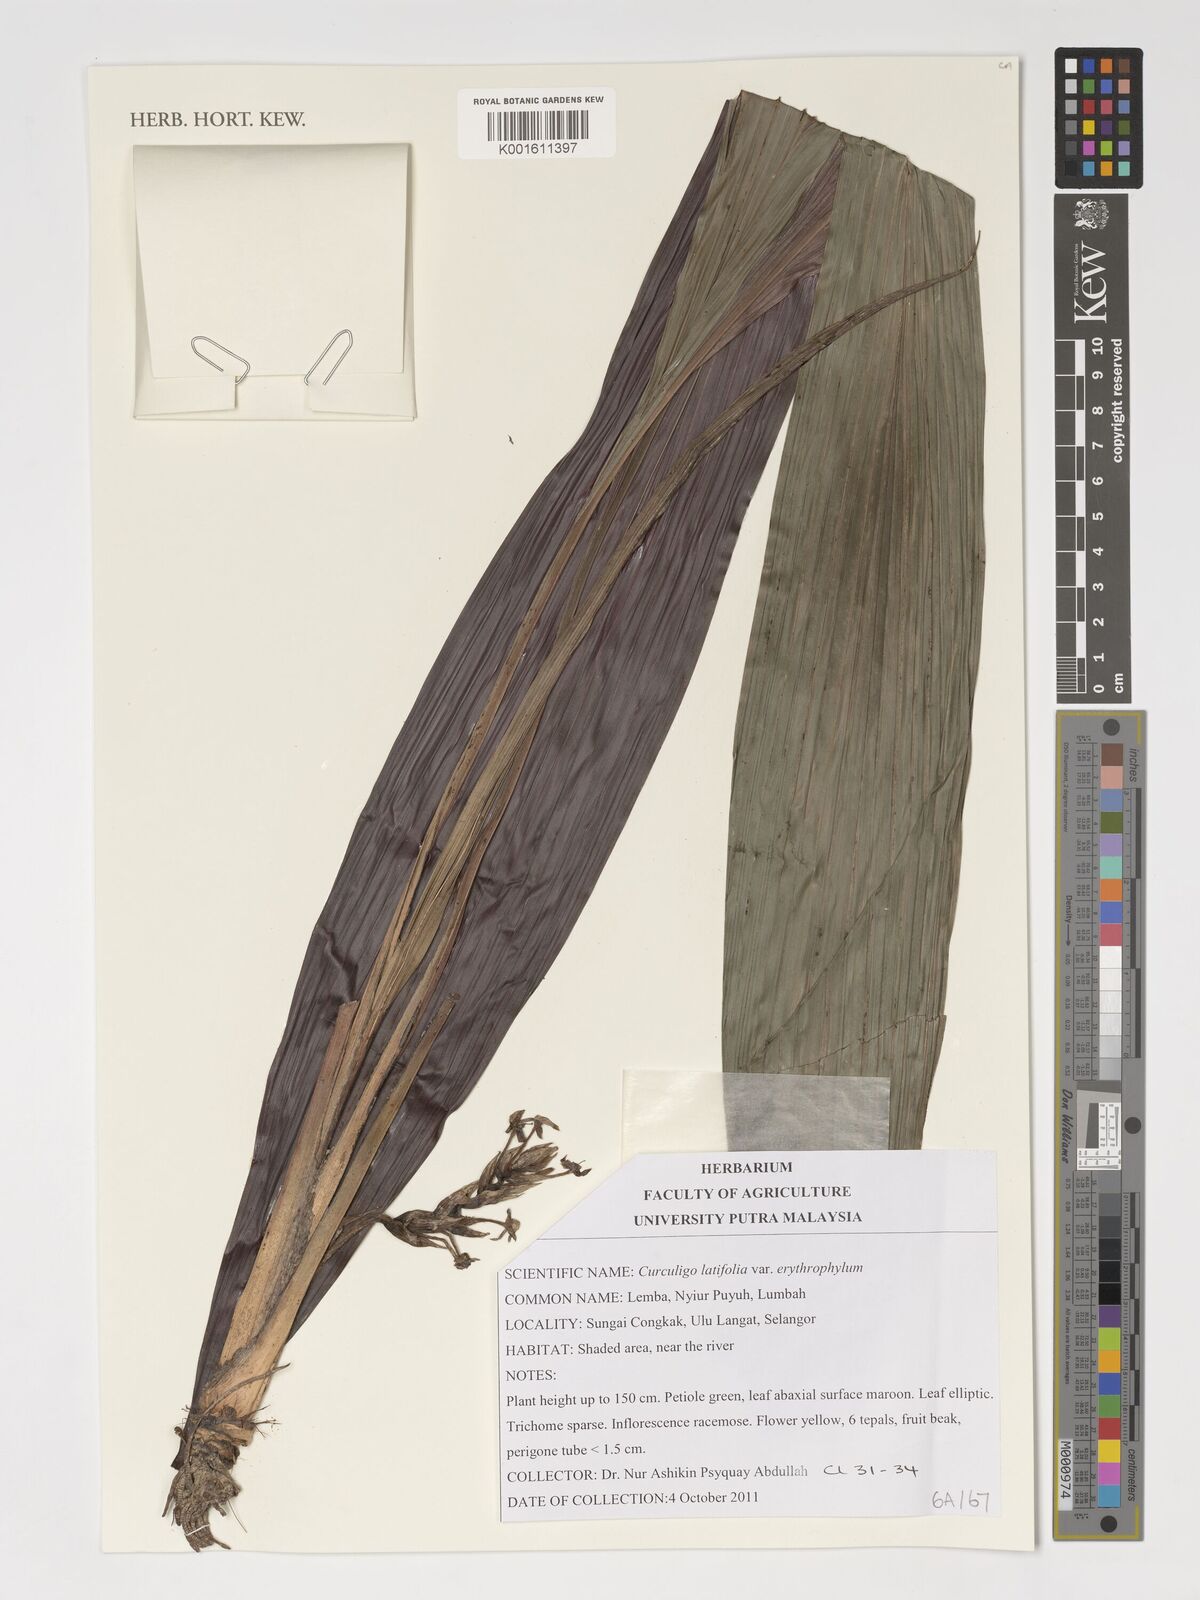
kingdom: Plantae
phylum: Tracheophyta
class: Liliopsida
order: Asparagales
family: Hypoxidaceae
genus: Curculigo
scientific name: Curculigo latifolia
